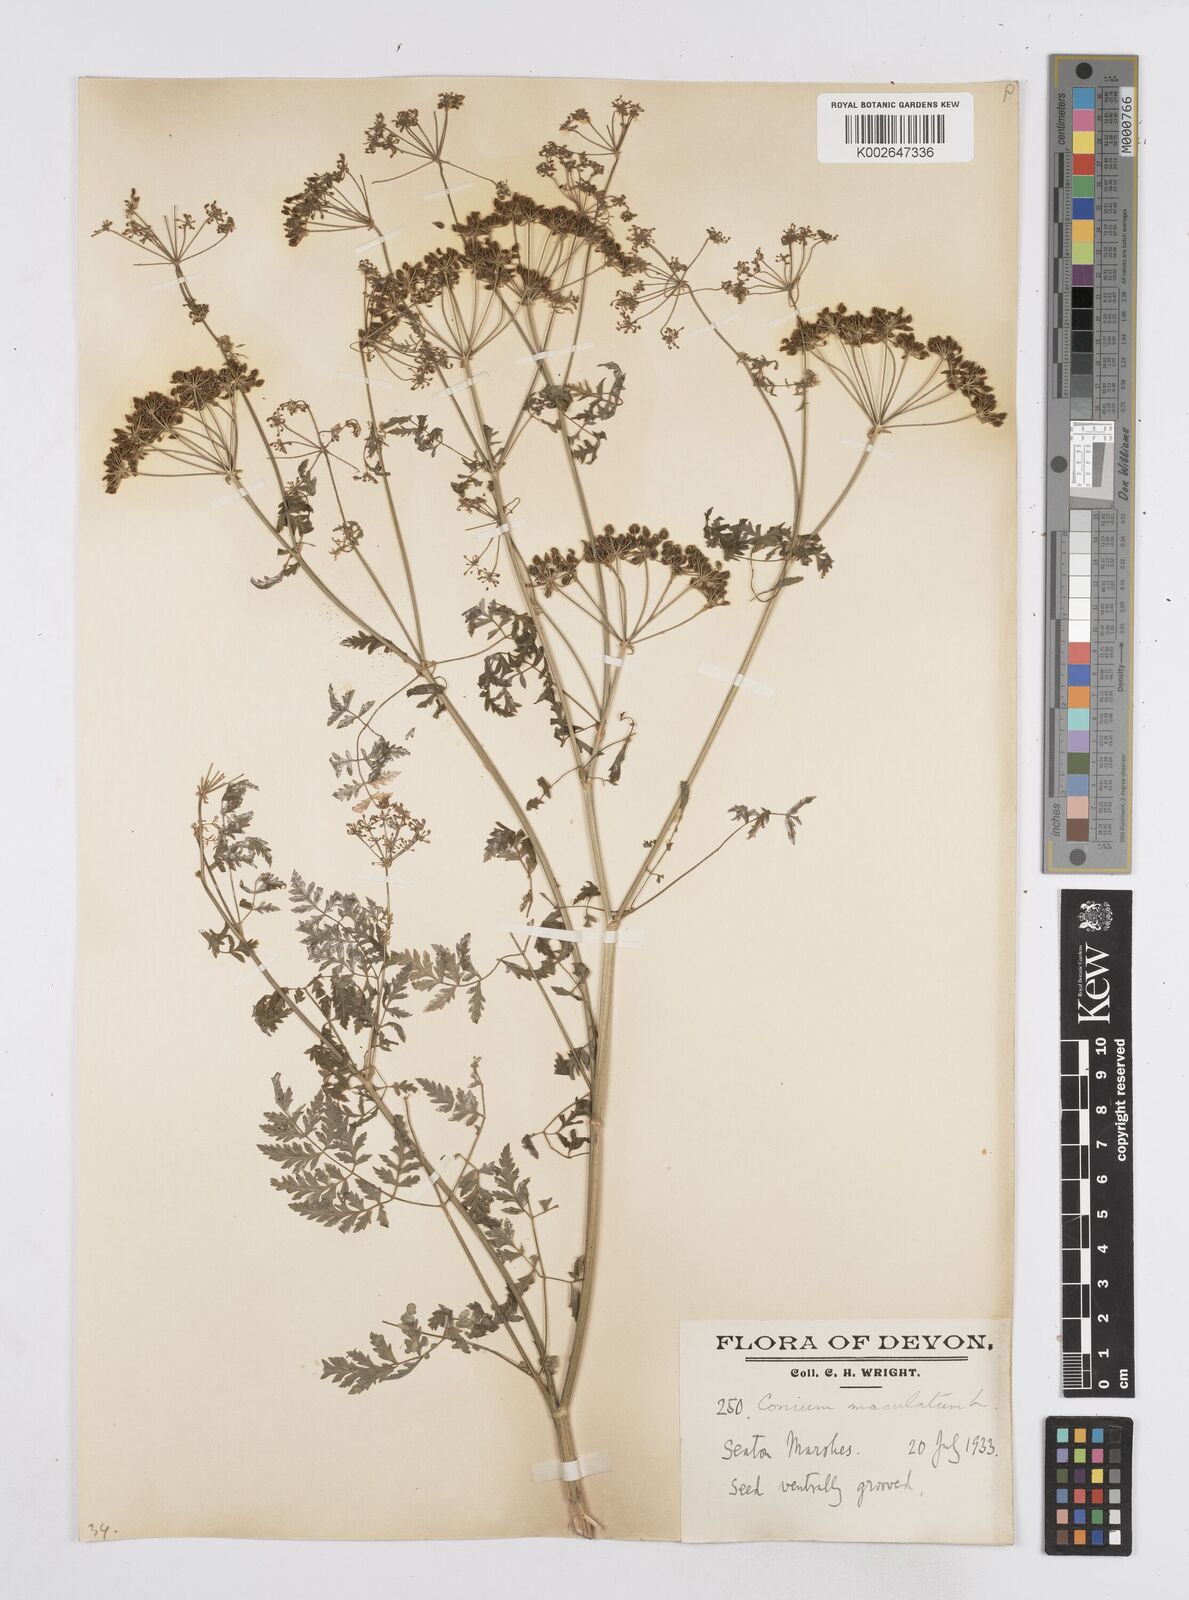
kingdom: Plantae
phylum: Tracheophyta
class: Magnoliopsida
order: Apiales
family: Apiaceae
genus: Conium
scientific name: Conium maculatum
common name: Hemlock
